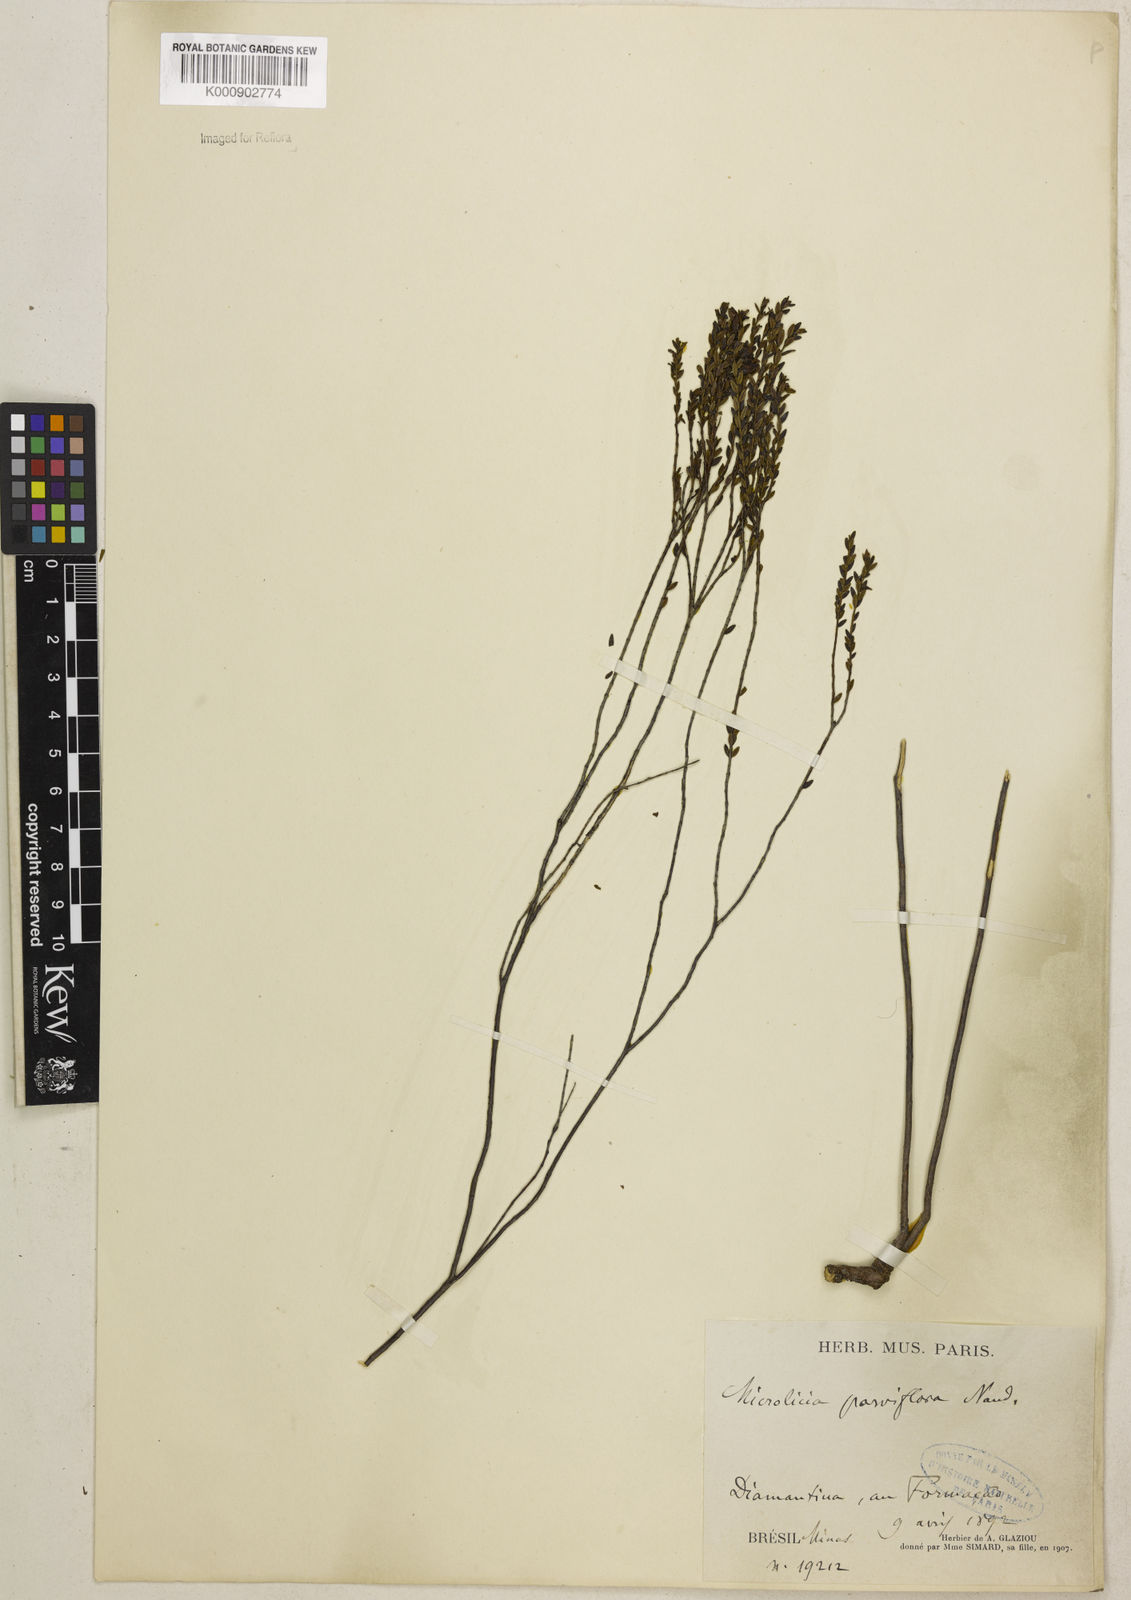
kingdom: Plantae
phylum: Tracheophyta
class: Magnoliopsida
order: Myrtales
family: Melastomataceae
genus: Microlicia
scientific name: Microlicia isophylla
